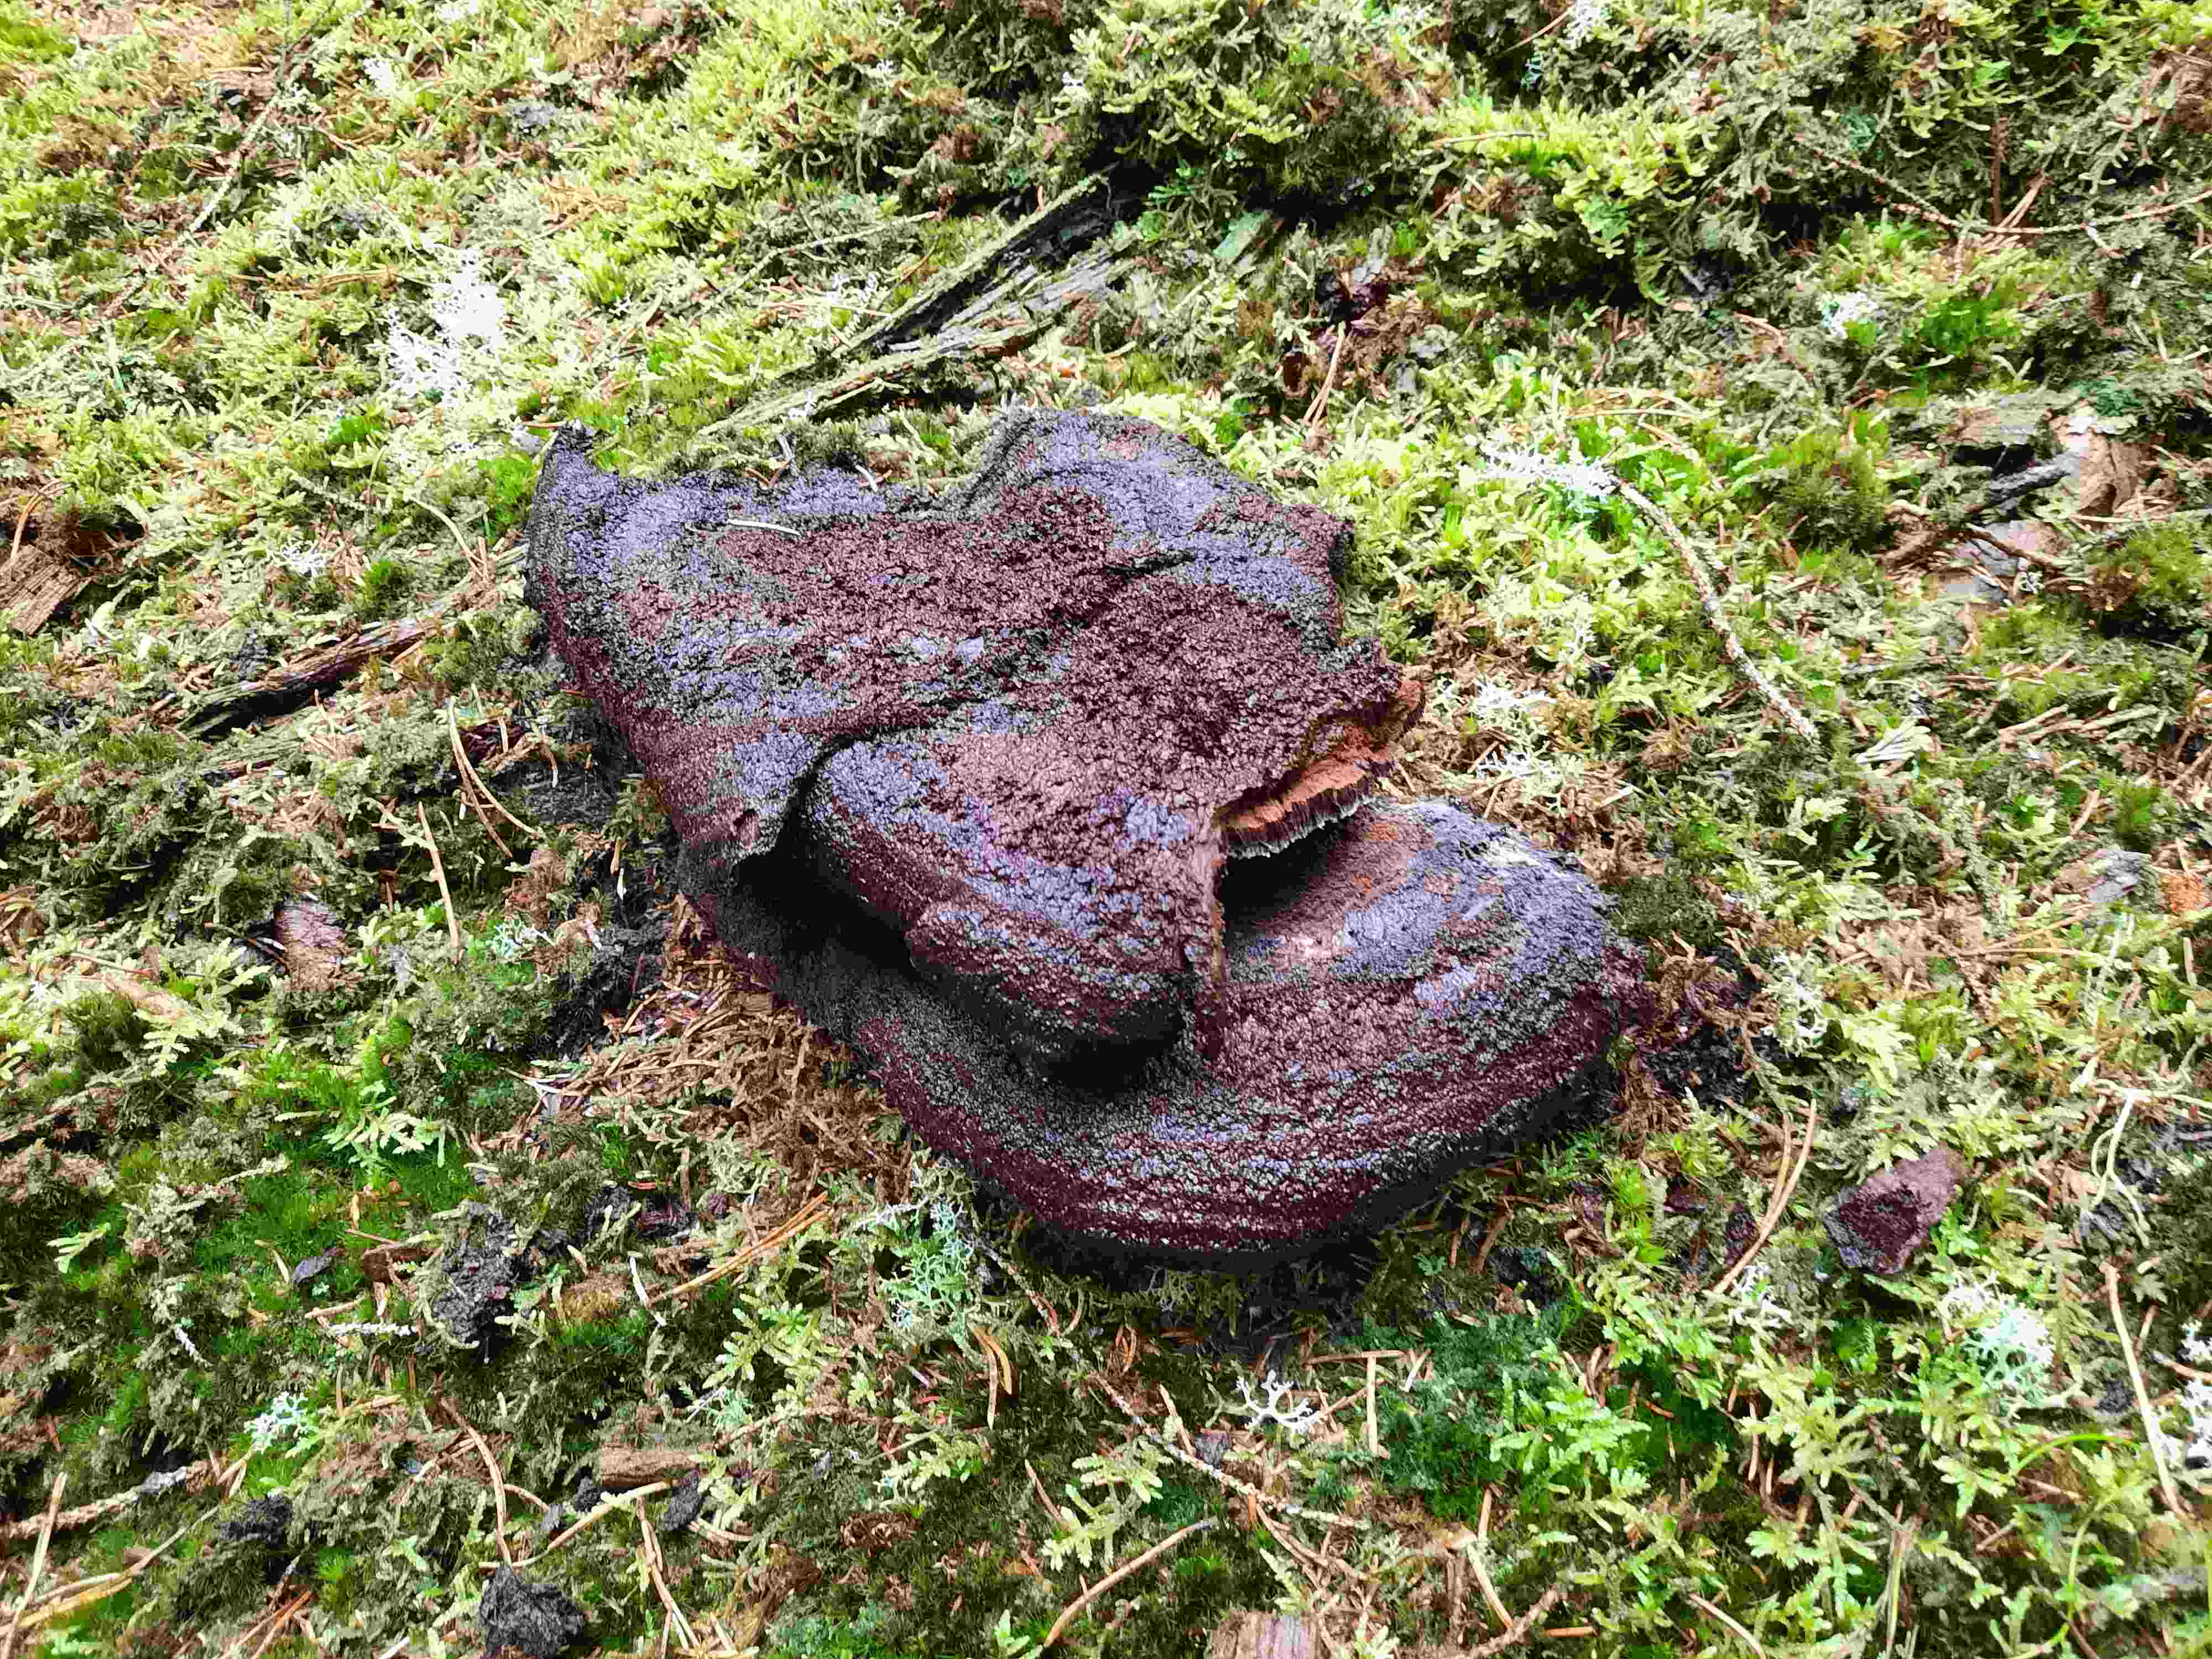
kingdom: Fungi
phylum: Basidiomycota
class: Agaricomycetes
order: Polyporales
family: Laetiporaceae
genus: Phaeolus
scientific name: Phaeolus schweinitzii
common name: brunporesvamp
